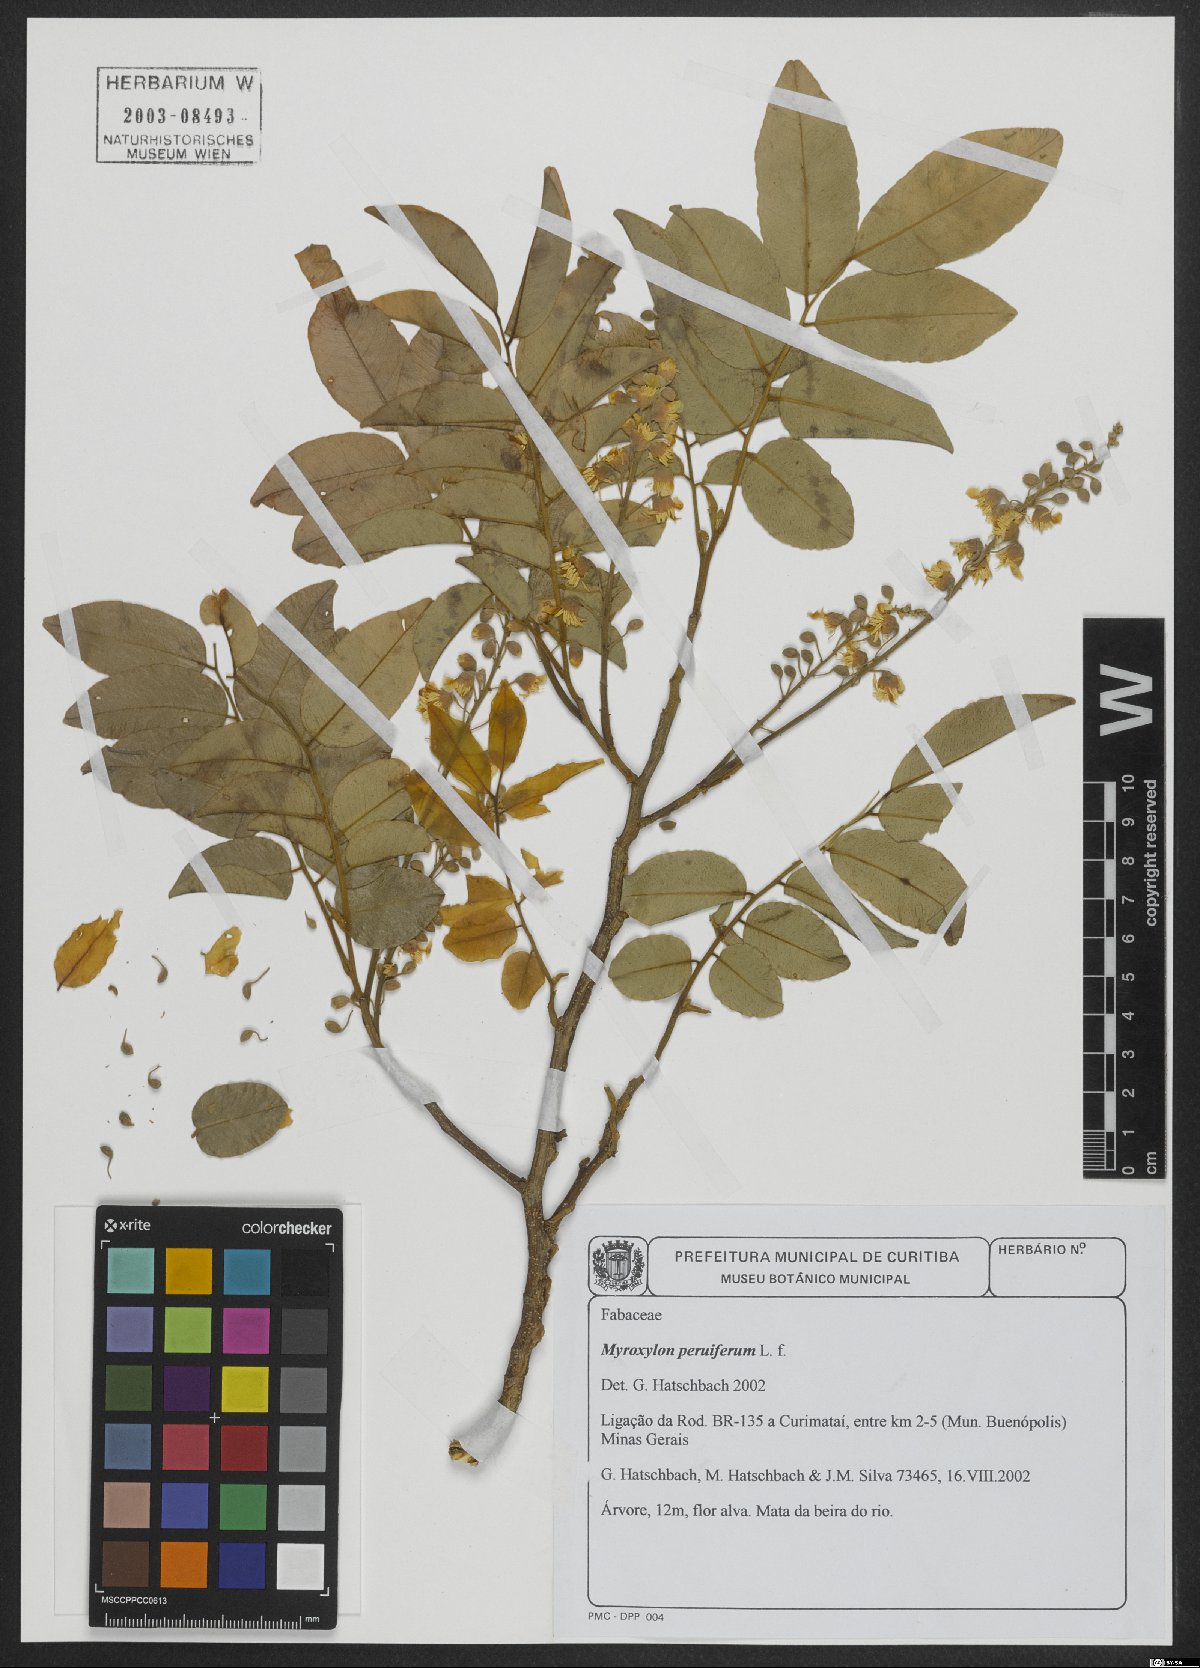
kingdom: Plantae
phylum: Tracheophyta
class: Magnoliopsida
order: Fabales
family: Fabaceae
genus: Myroxylon
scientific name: Myroxylon peruiferum
